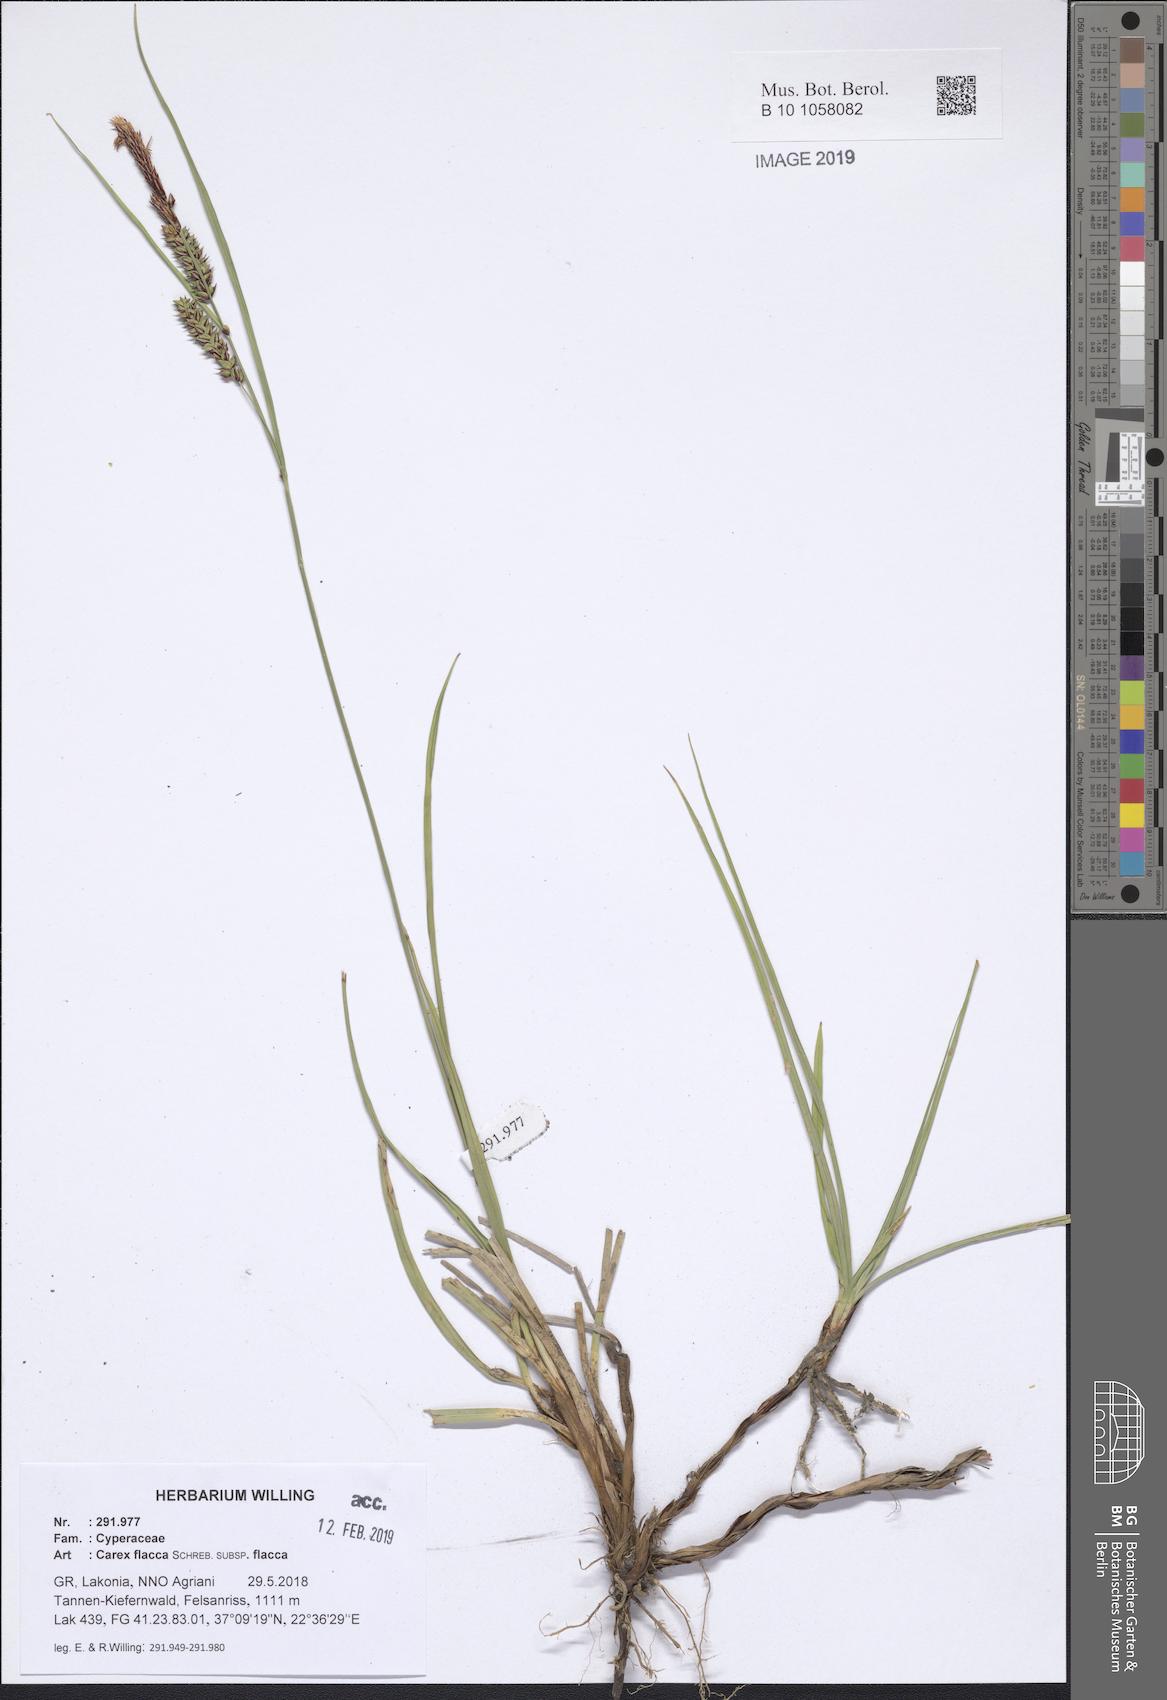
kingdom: Plantae
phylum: Tracheophyta
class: Liliopsida
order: Poales
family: Cyperaceae
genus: Carex
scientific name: Carex flacca
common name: Glaucous sedge
